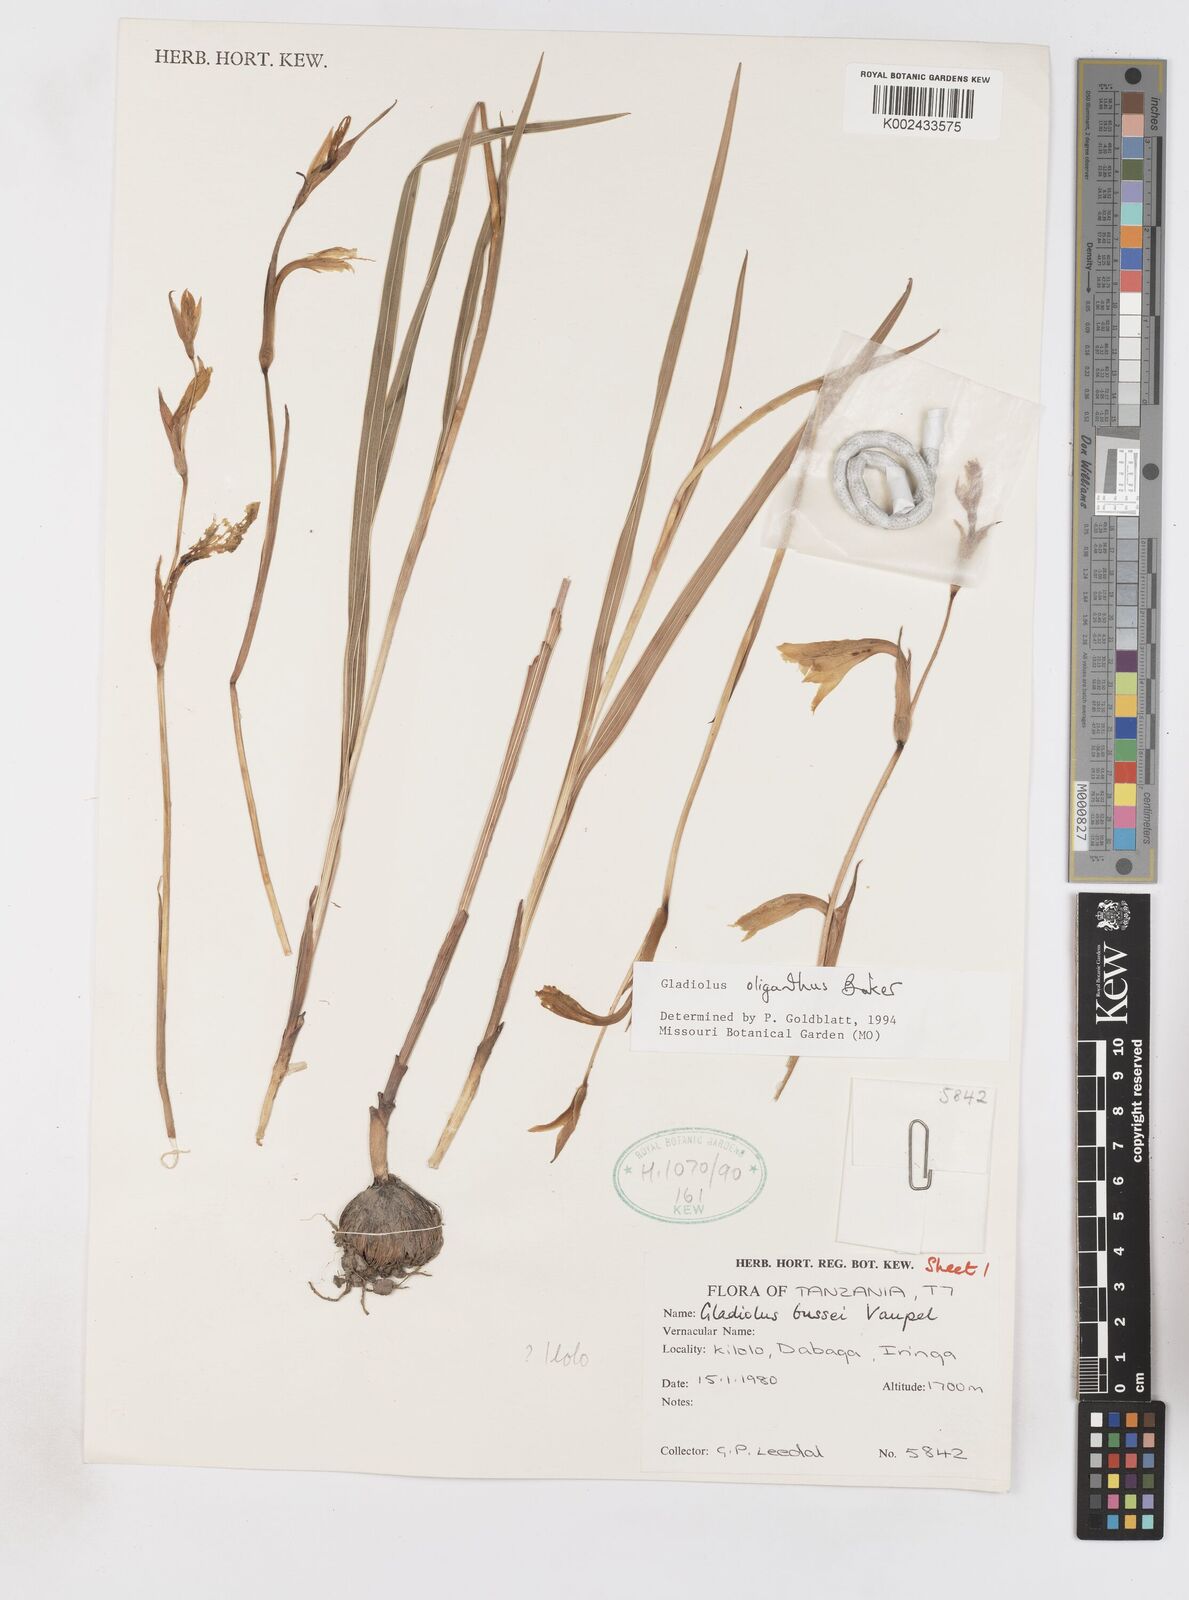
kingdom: Plantae
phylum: Tracheophyta
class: Liliopsida
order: Asparagales
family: Iridaceae
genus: Gladiolus
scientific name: Gladiolus oliganthus
